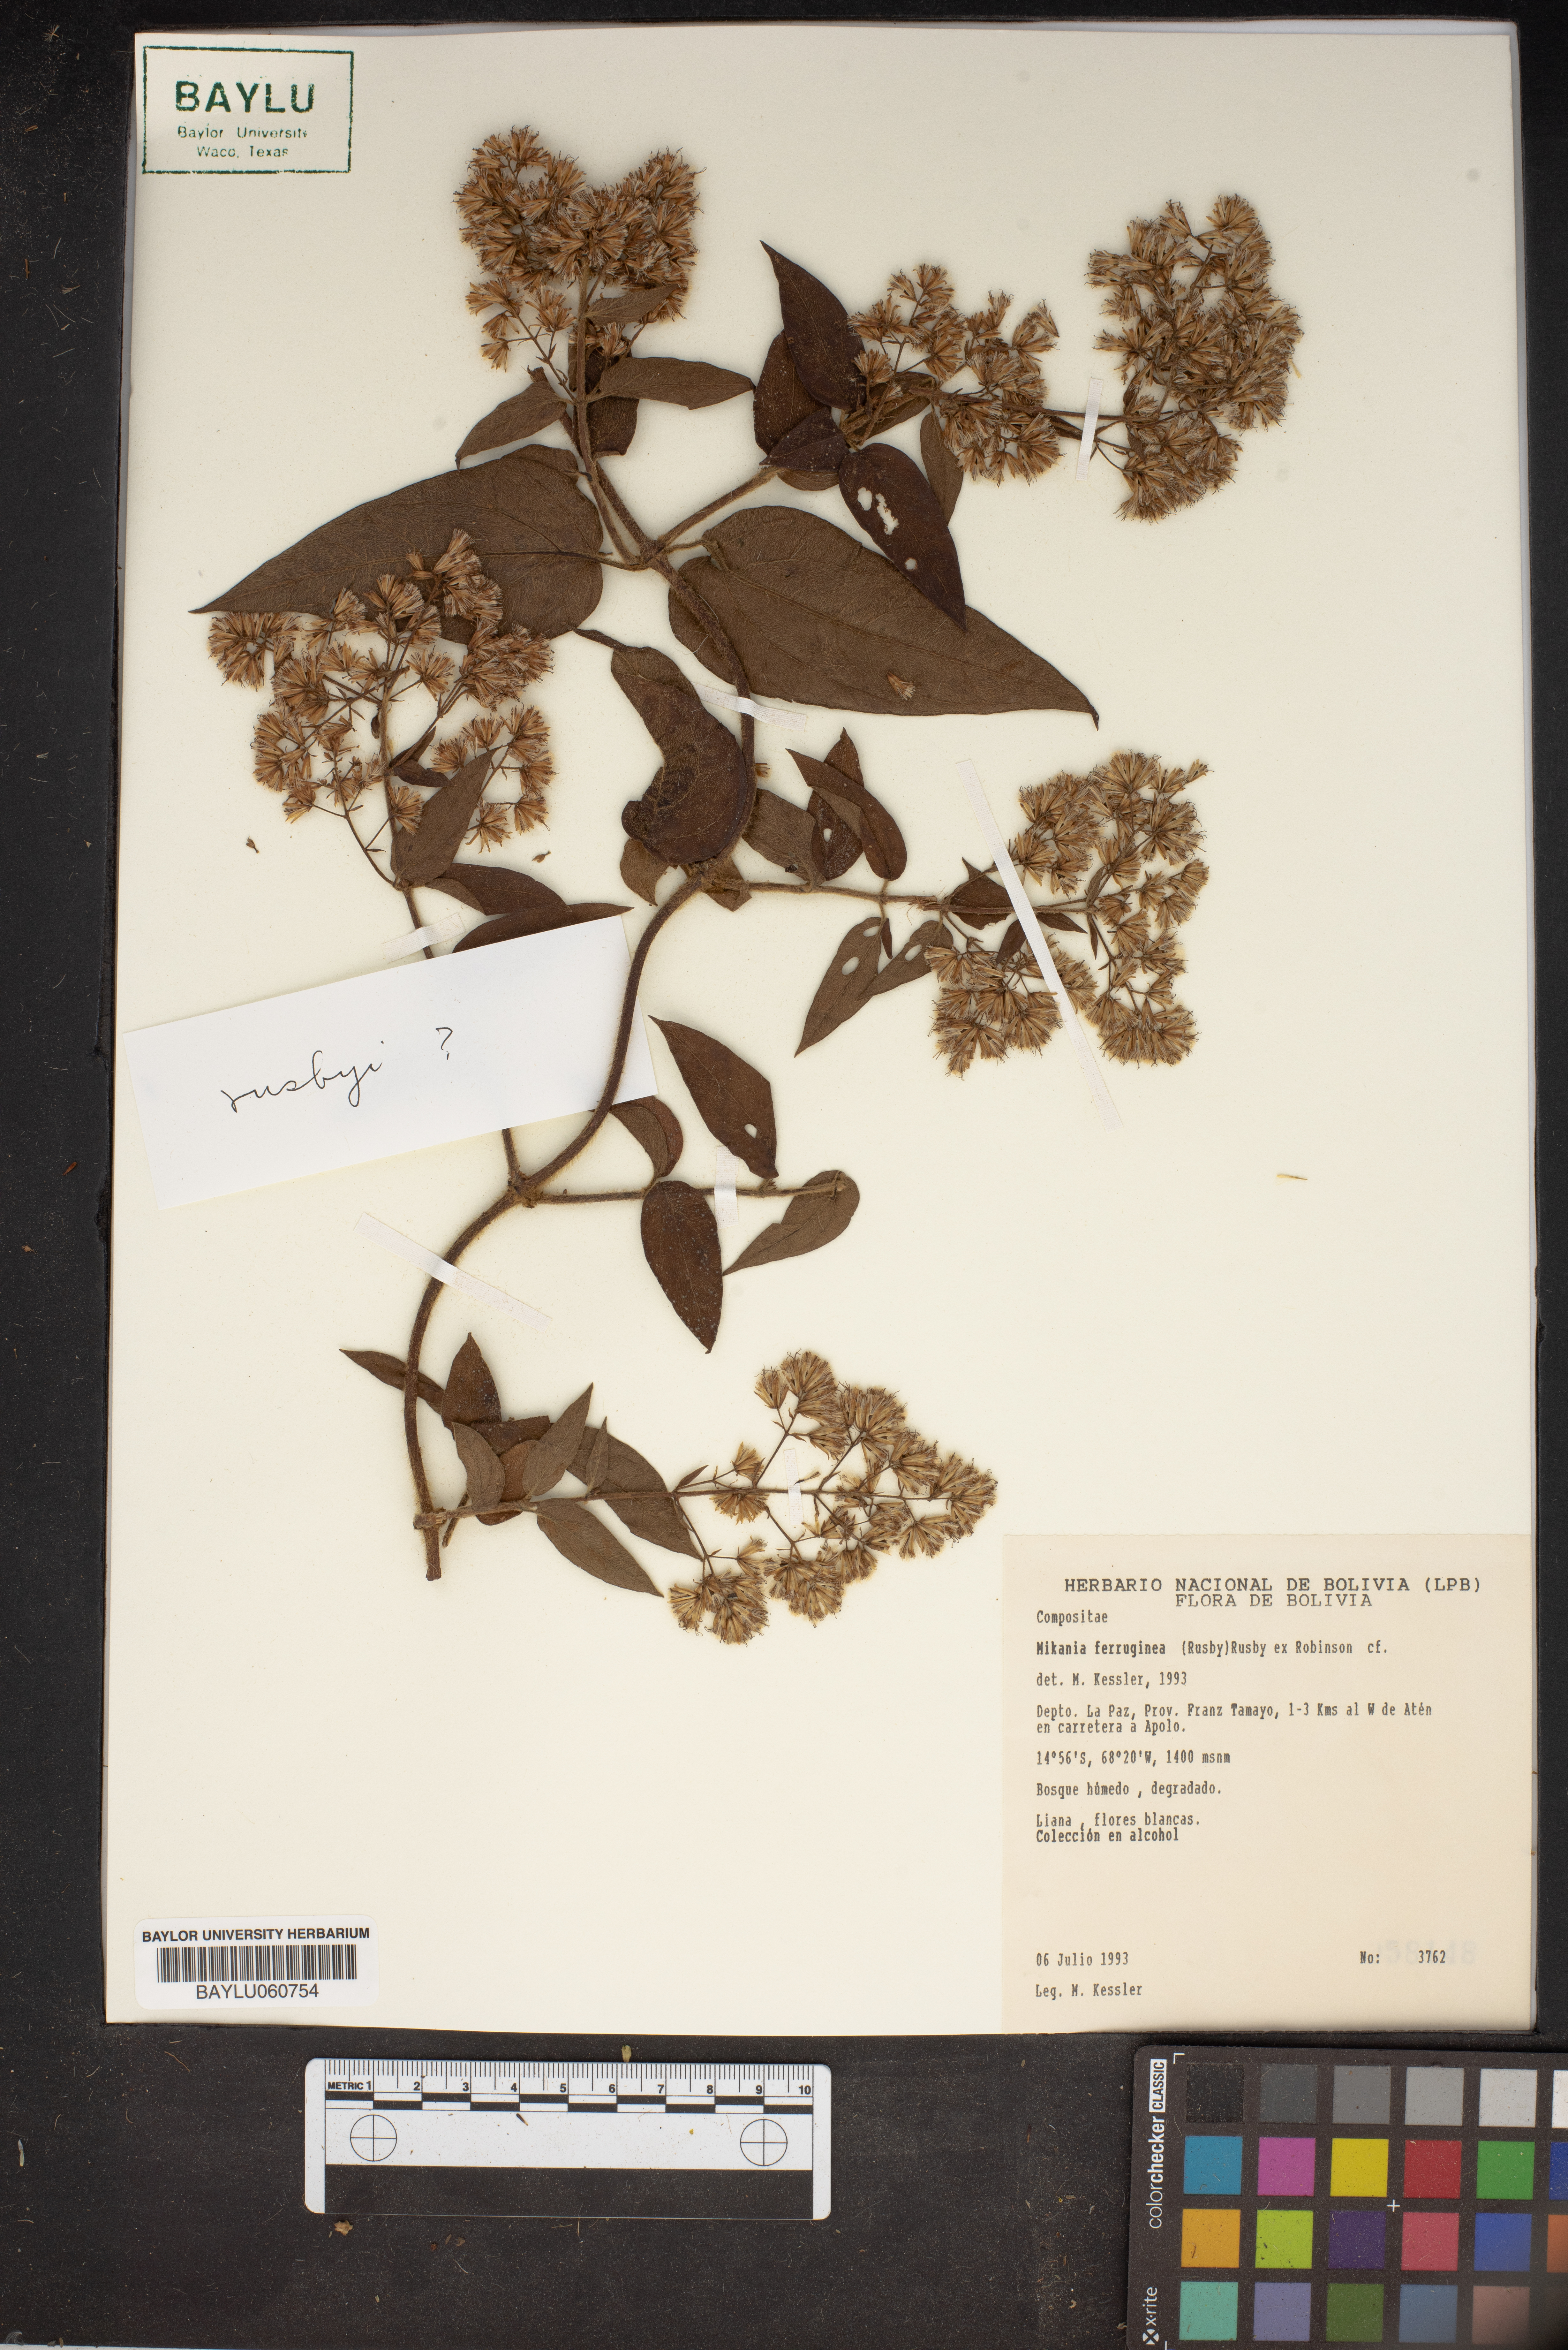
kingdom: Plantae
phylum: Tracheophyta
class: Magnoliopsida
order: Asterales
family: Asteraceae
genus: Mikania
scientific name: Mikania banisteriae
